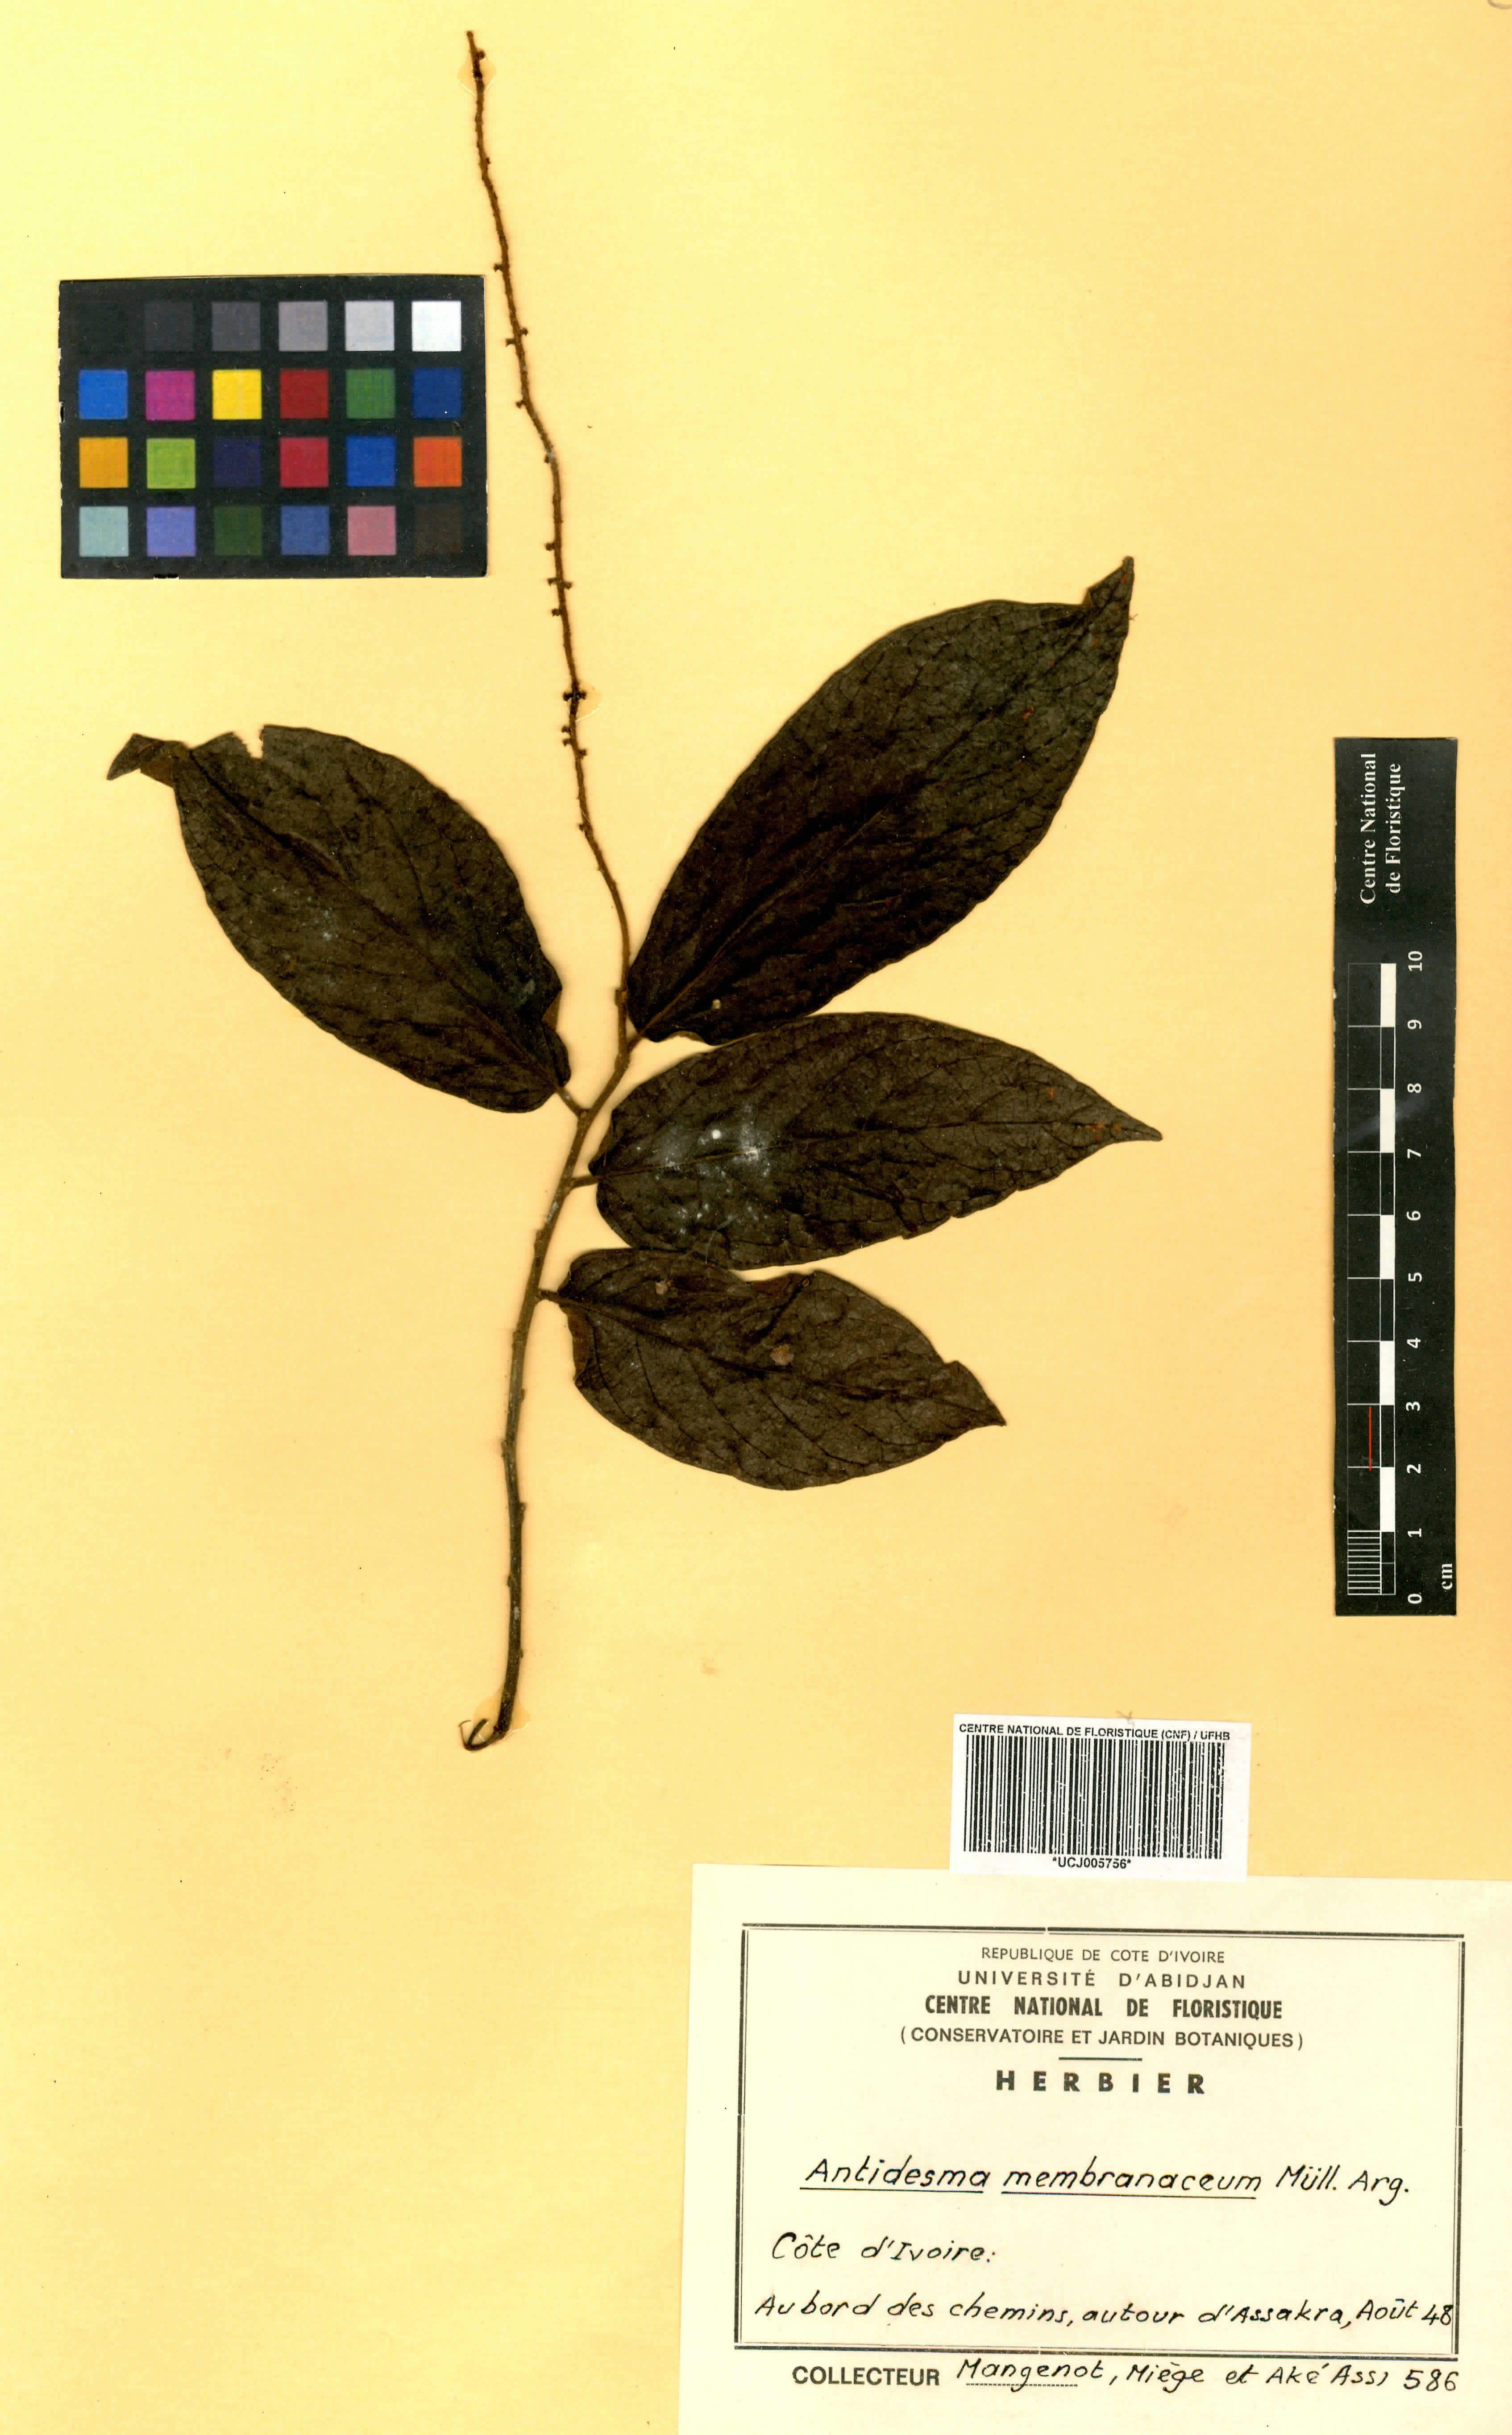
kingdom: Plantae
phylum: Tracheophyta
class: Magnoliopsida
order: Malpighiales
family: Phyllanthaceae
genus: Antidesma
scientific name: Antidesma membranaceum
